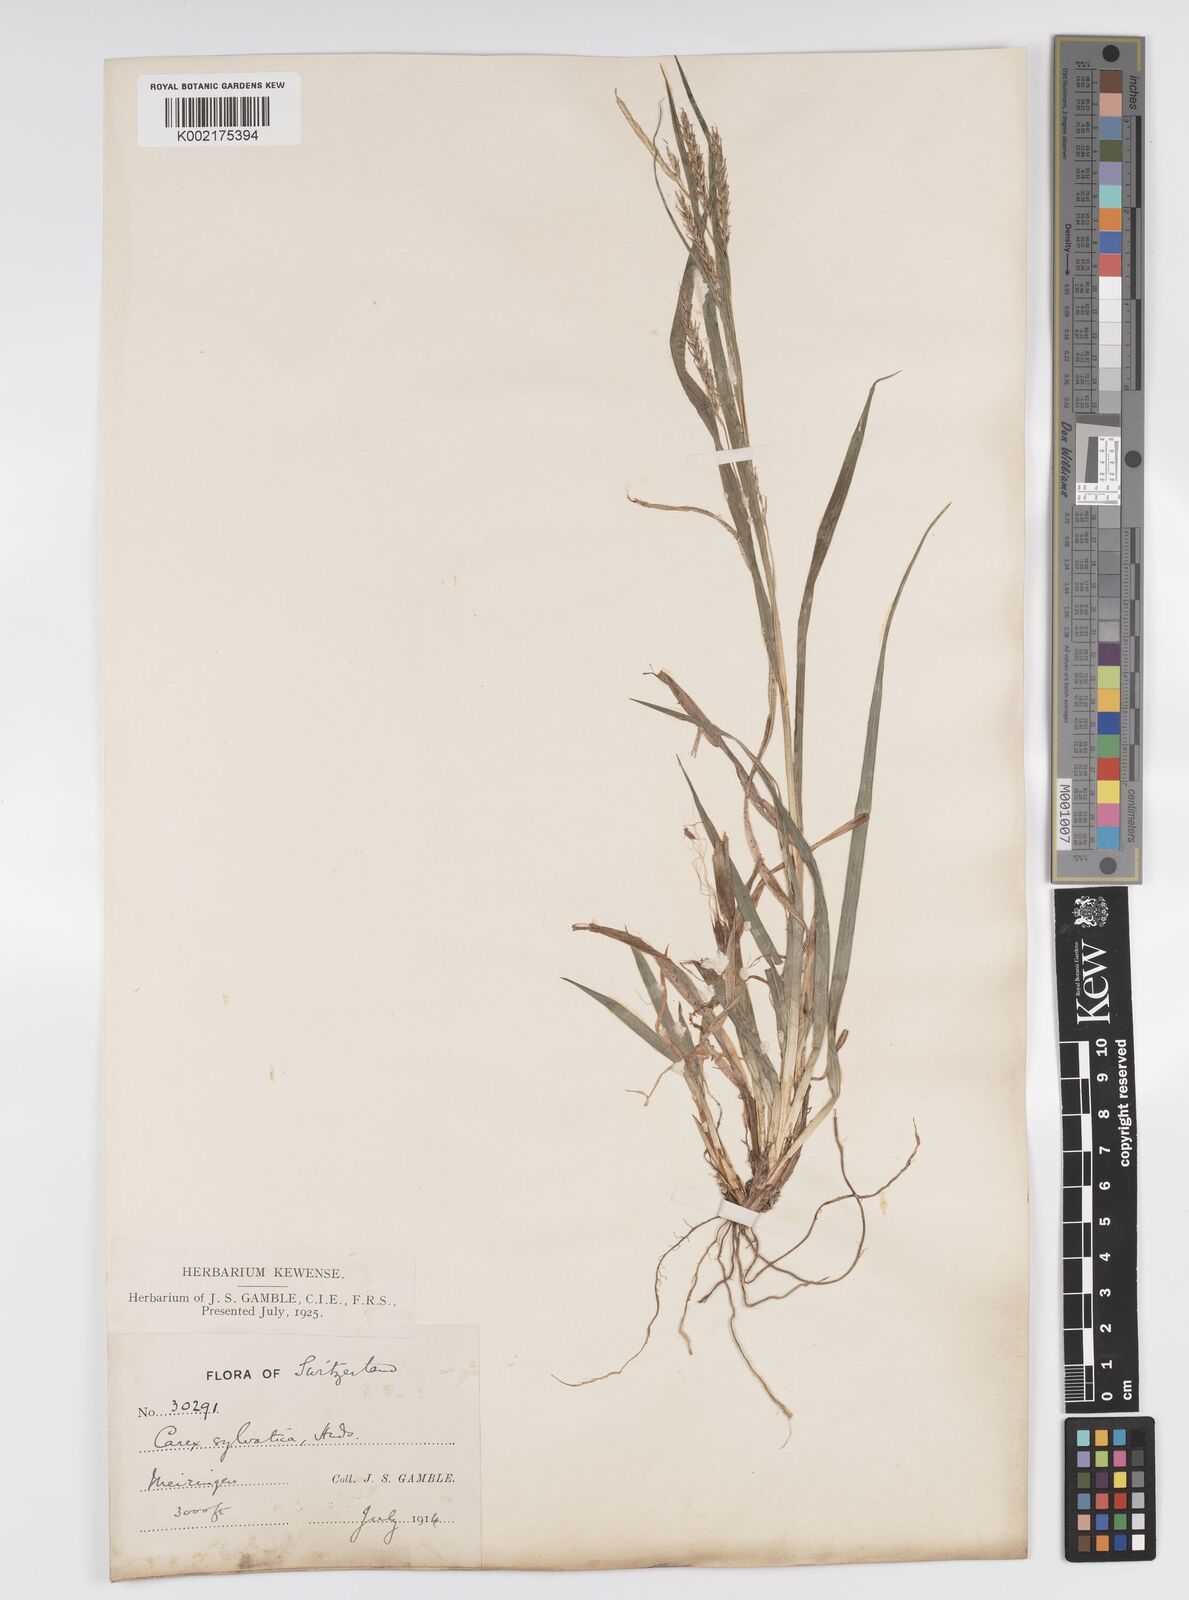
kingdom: Plantae
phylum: Tracheophyta
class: Liliopsida
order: Poales
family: Cyperaceae
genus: Carex
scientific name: Carex sylvatica
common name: Wood-sedge
